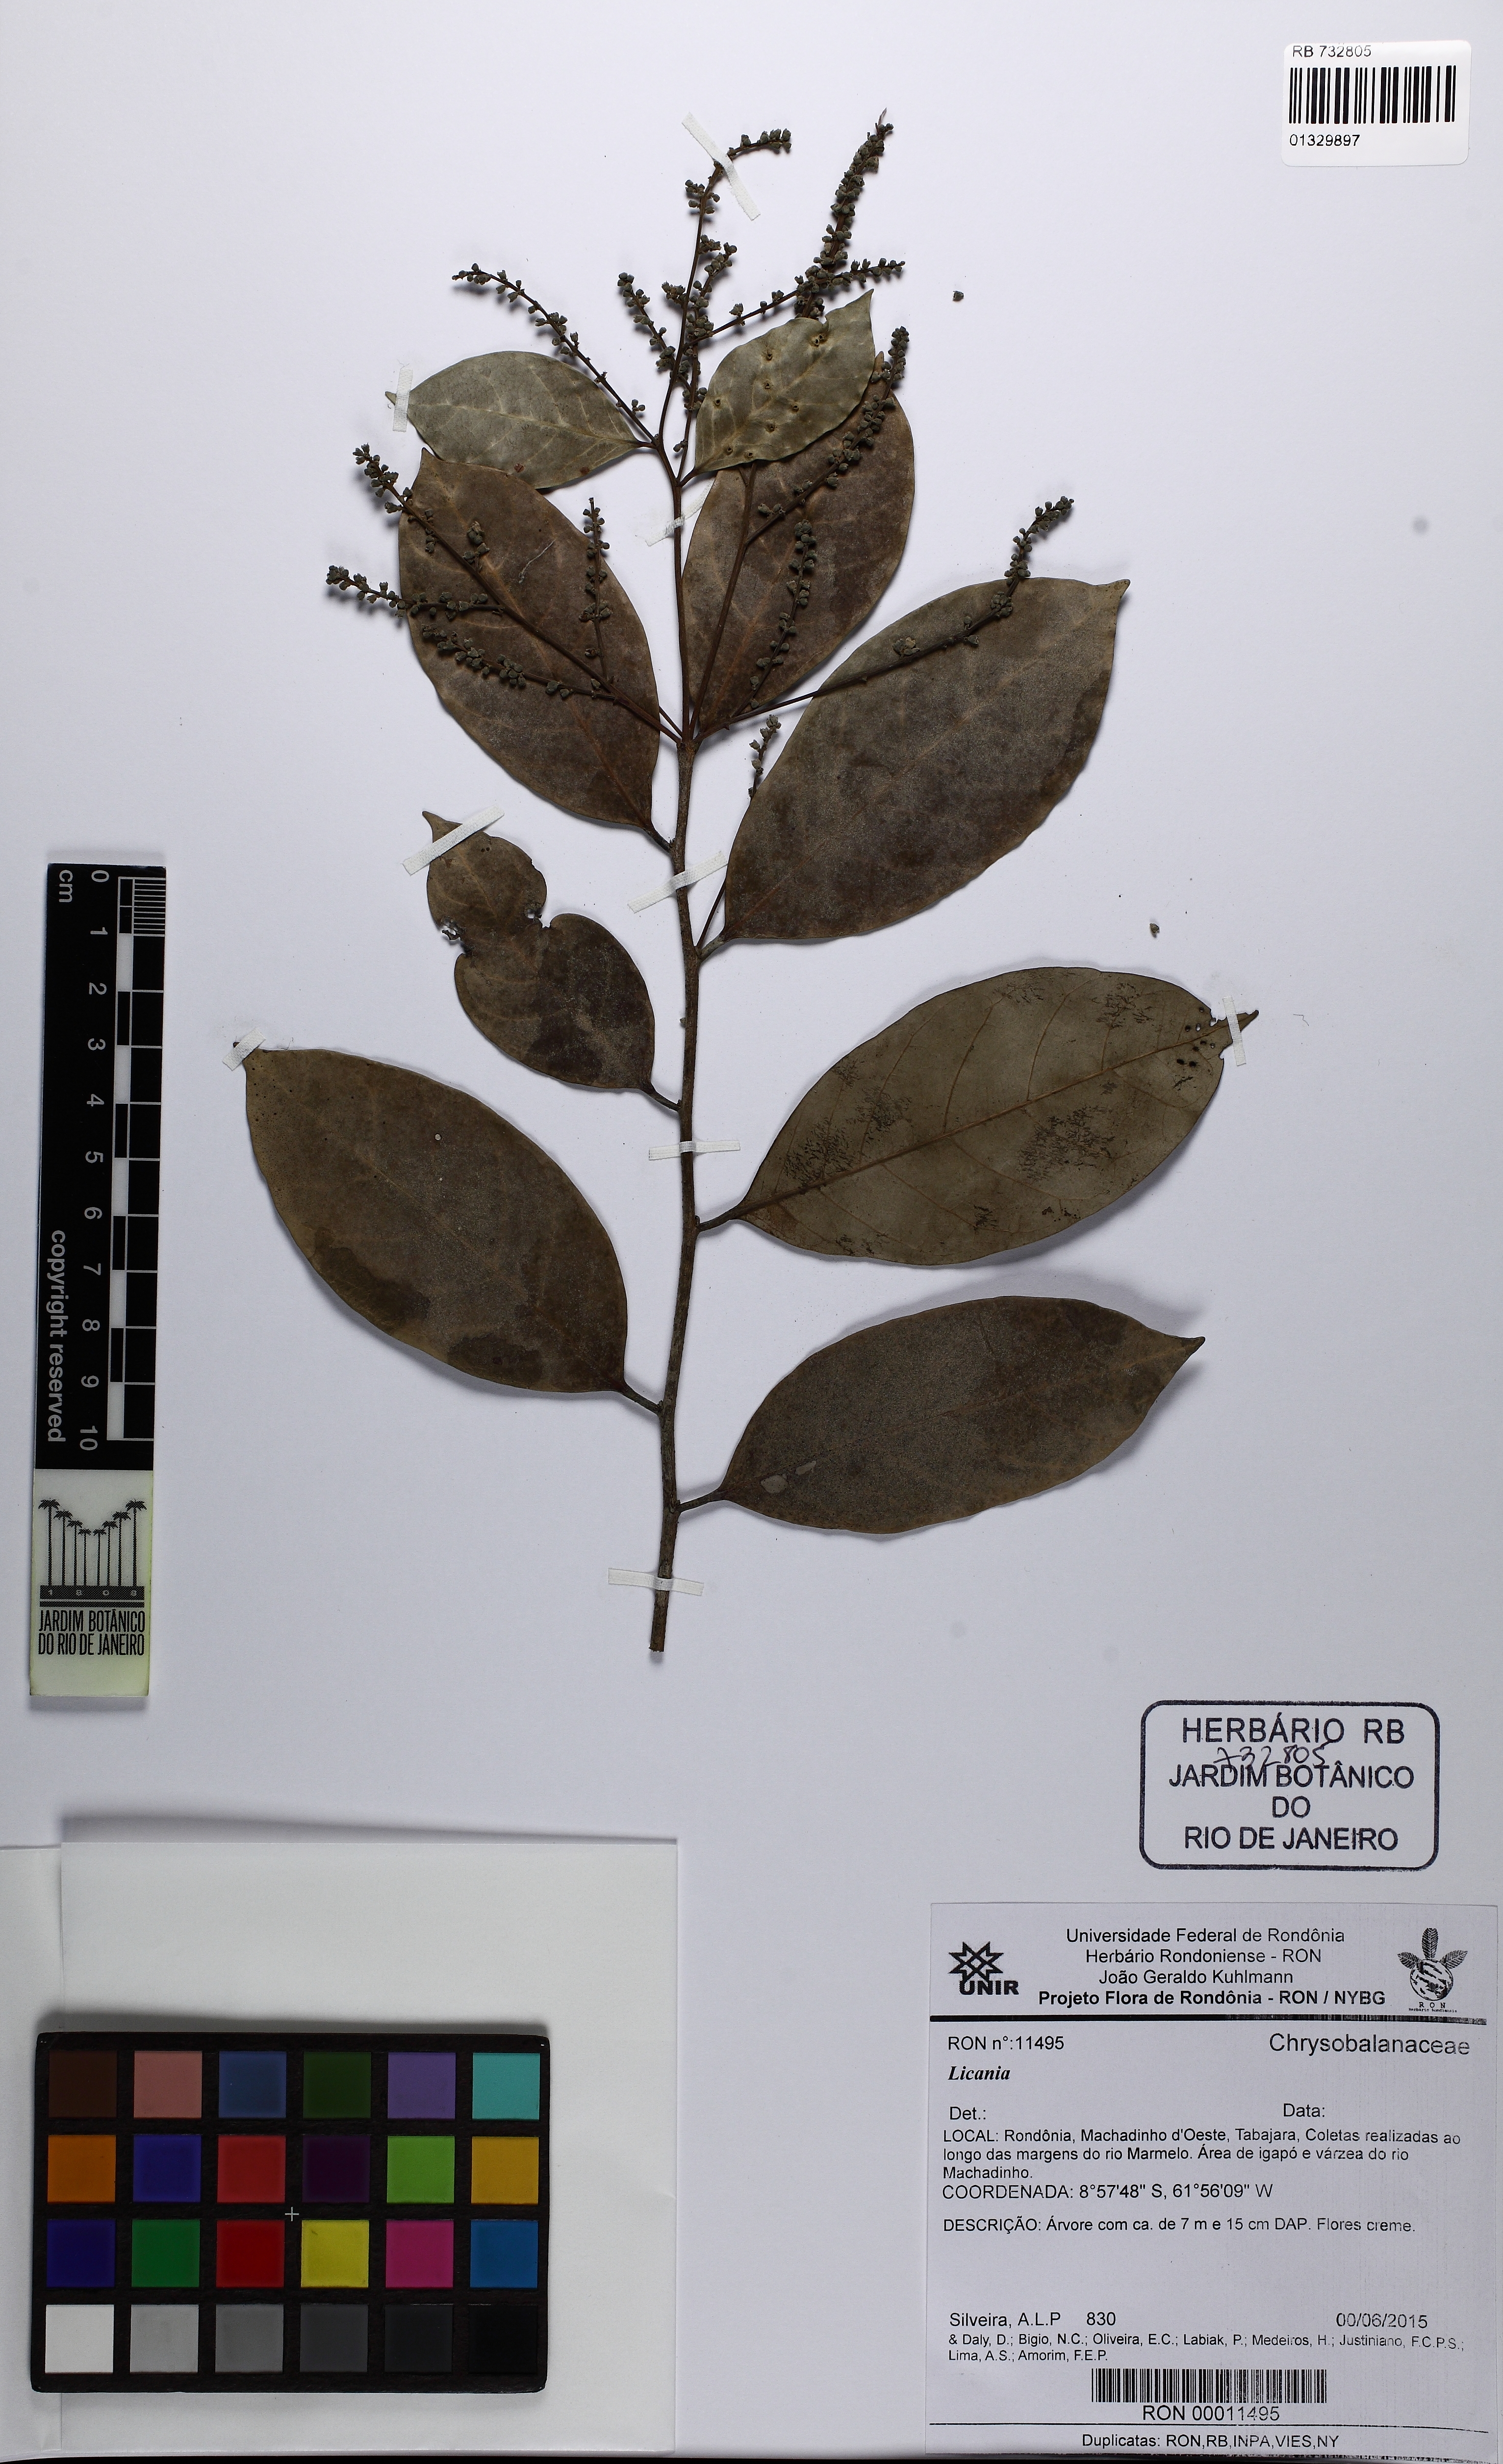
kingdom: Plantae
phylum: Tracheophyta
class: Magnoliopsida
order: Malpighiales
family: Chrysobalanaceae
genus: Licania
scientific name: Licania
